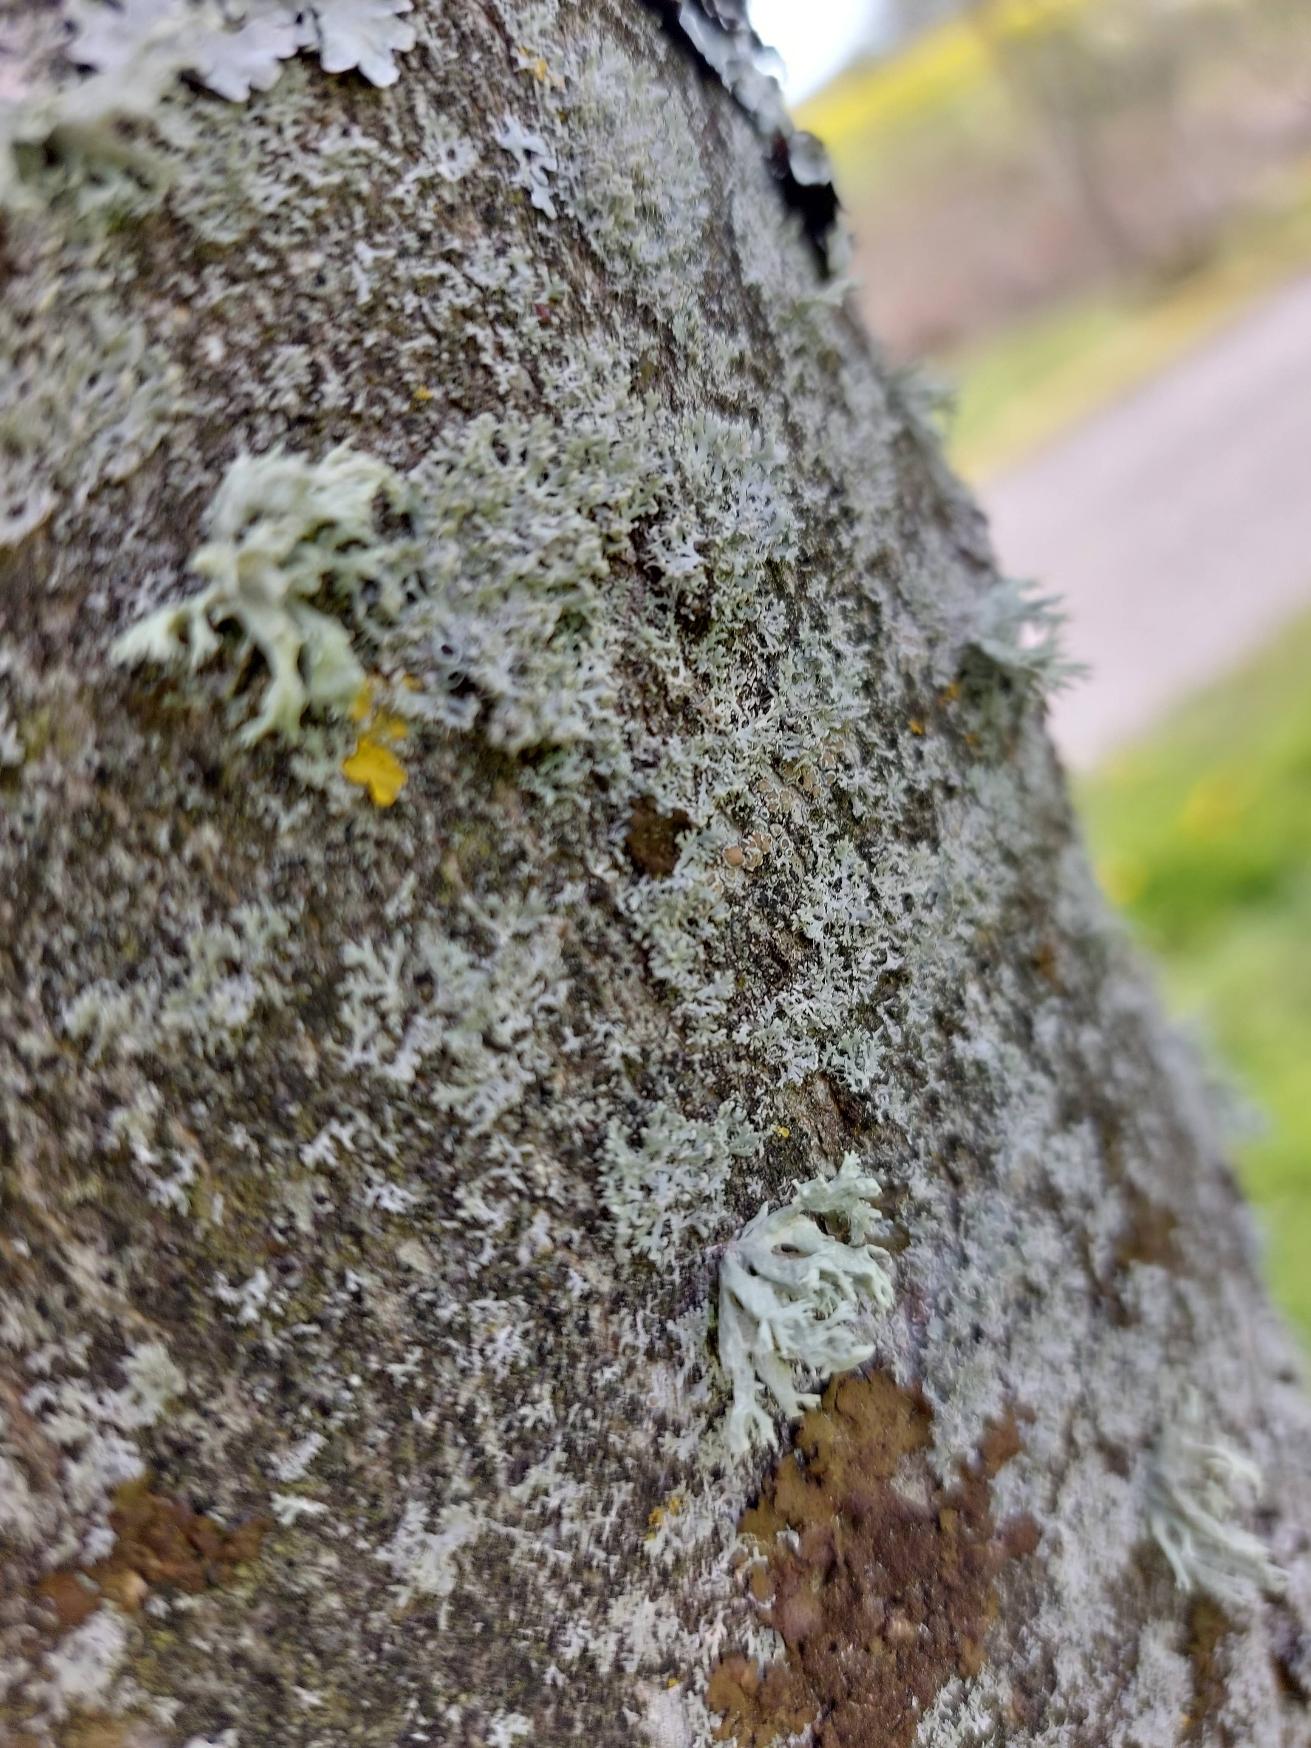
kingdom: Fungi
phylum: Ascomycota
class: Lecanoromycetes
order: Lecanorales
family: Parmeliaceae
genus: Parmelia
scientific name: Parmelia sulcata
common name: Rynket skållav
